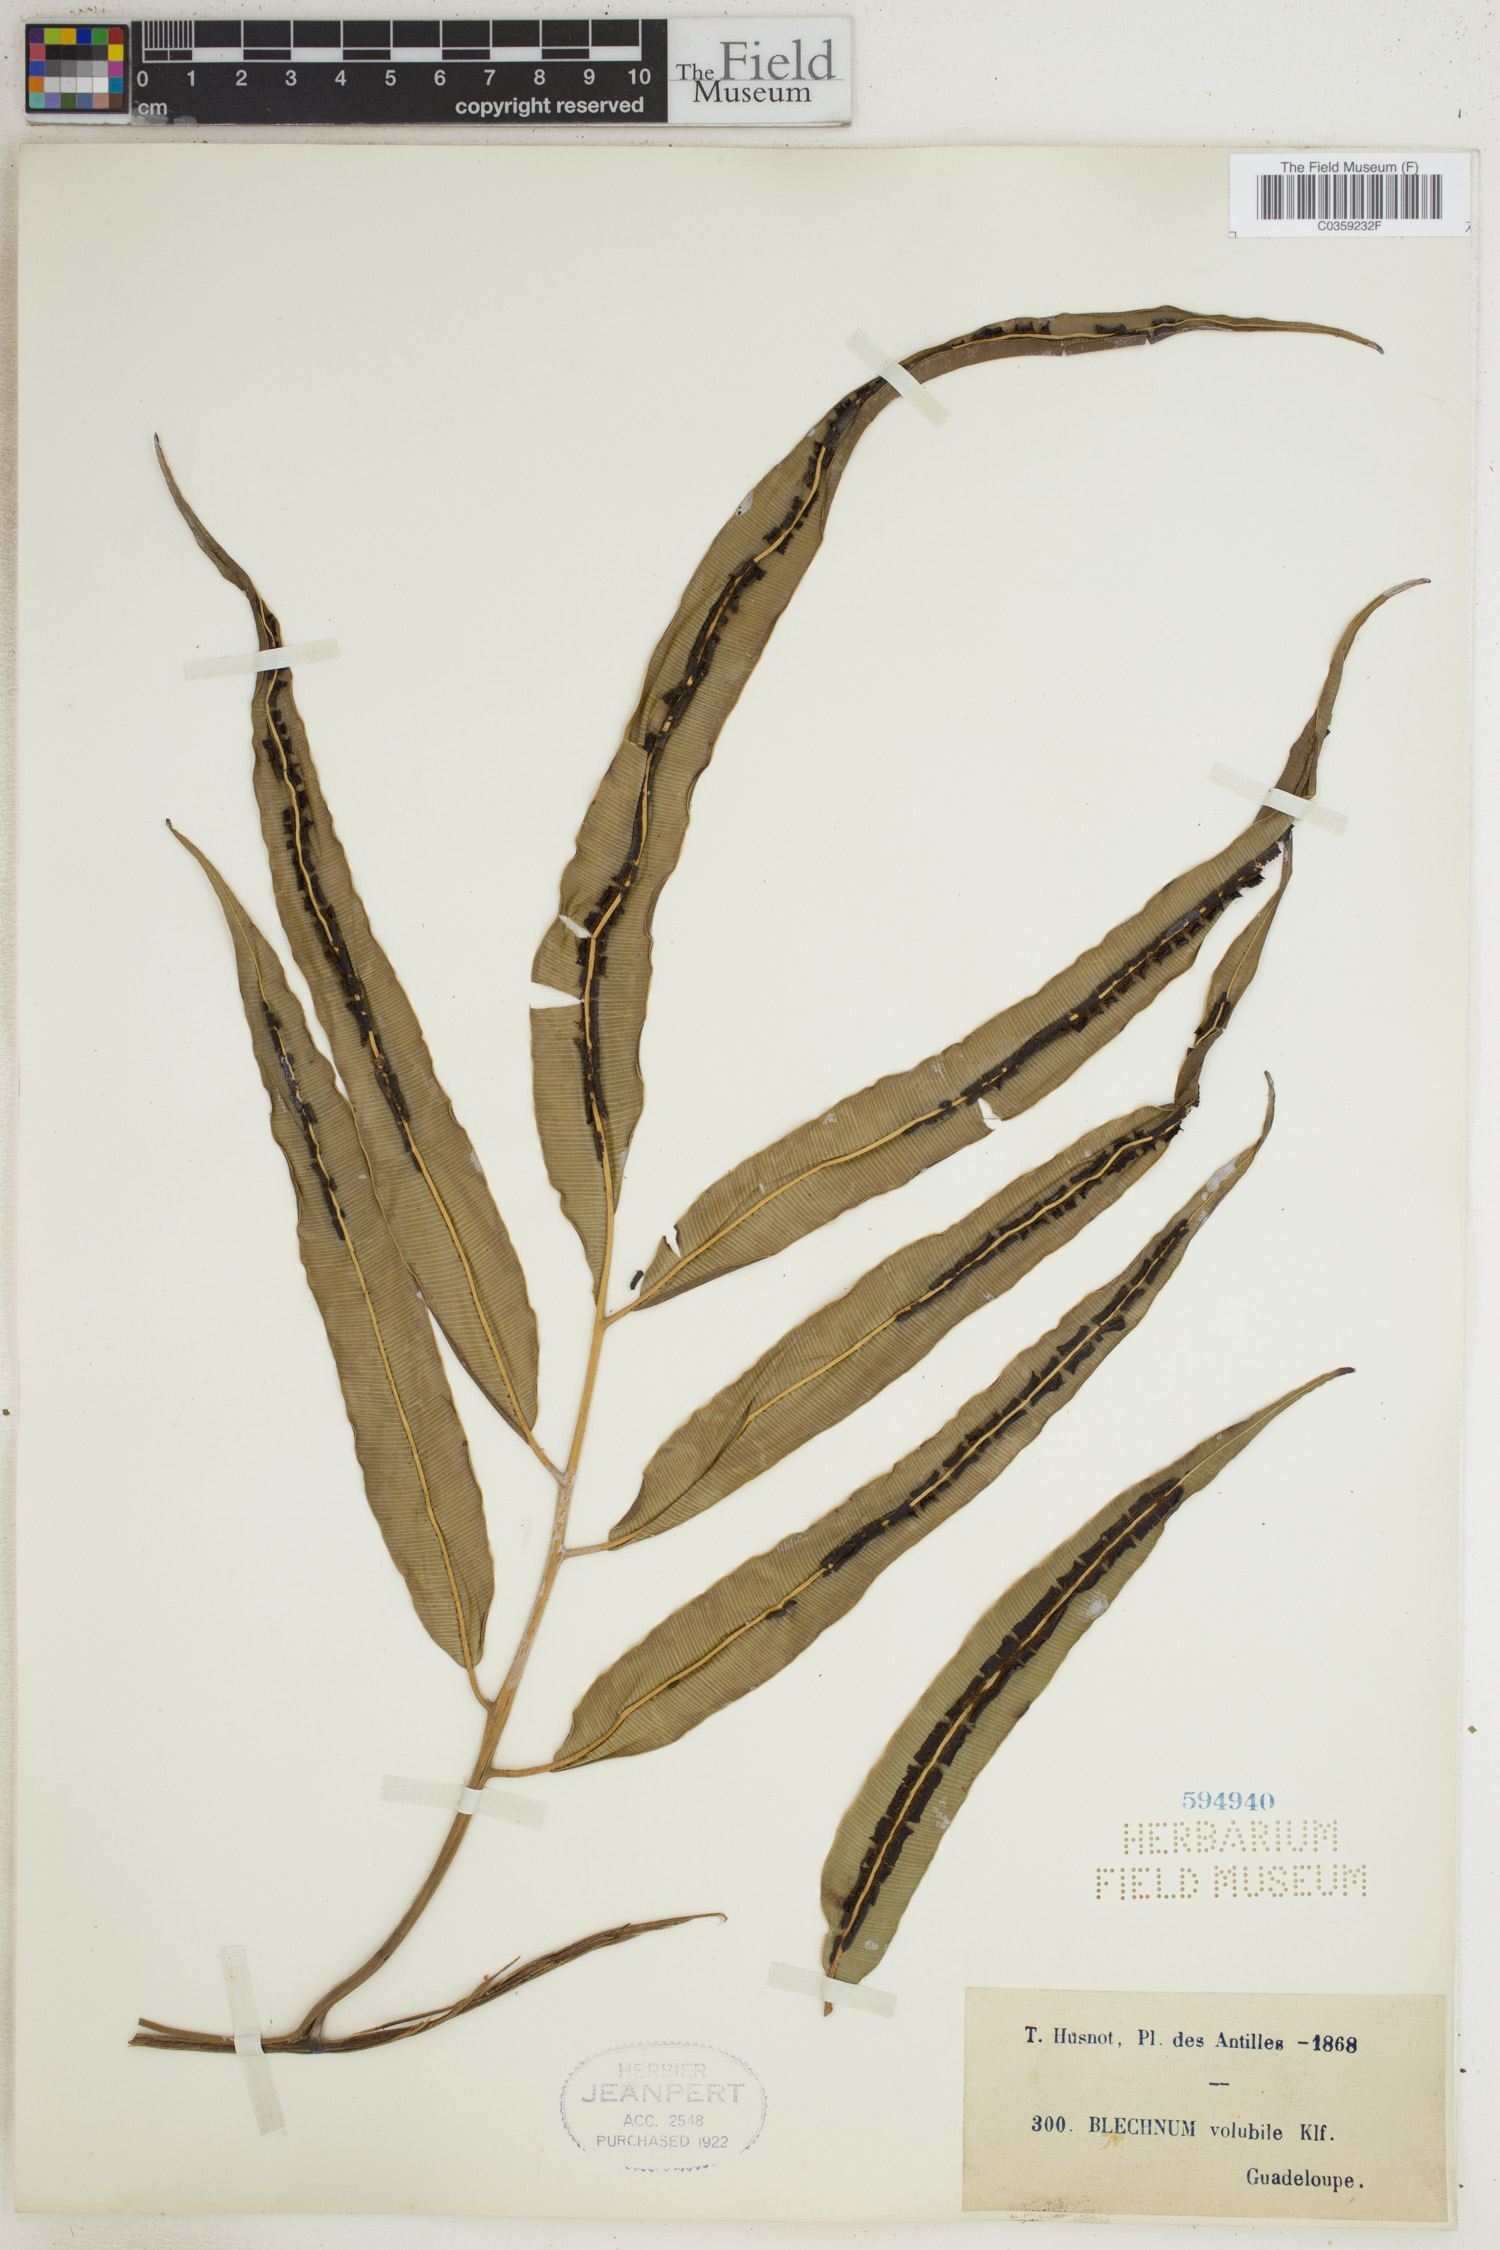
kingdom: Plantae
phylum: Tracheophyta
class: Polypodiopsida
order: Polypodiales
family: Blechnaceae
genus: Salpichlaena
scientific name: Salpichlaena volubilis
